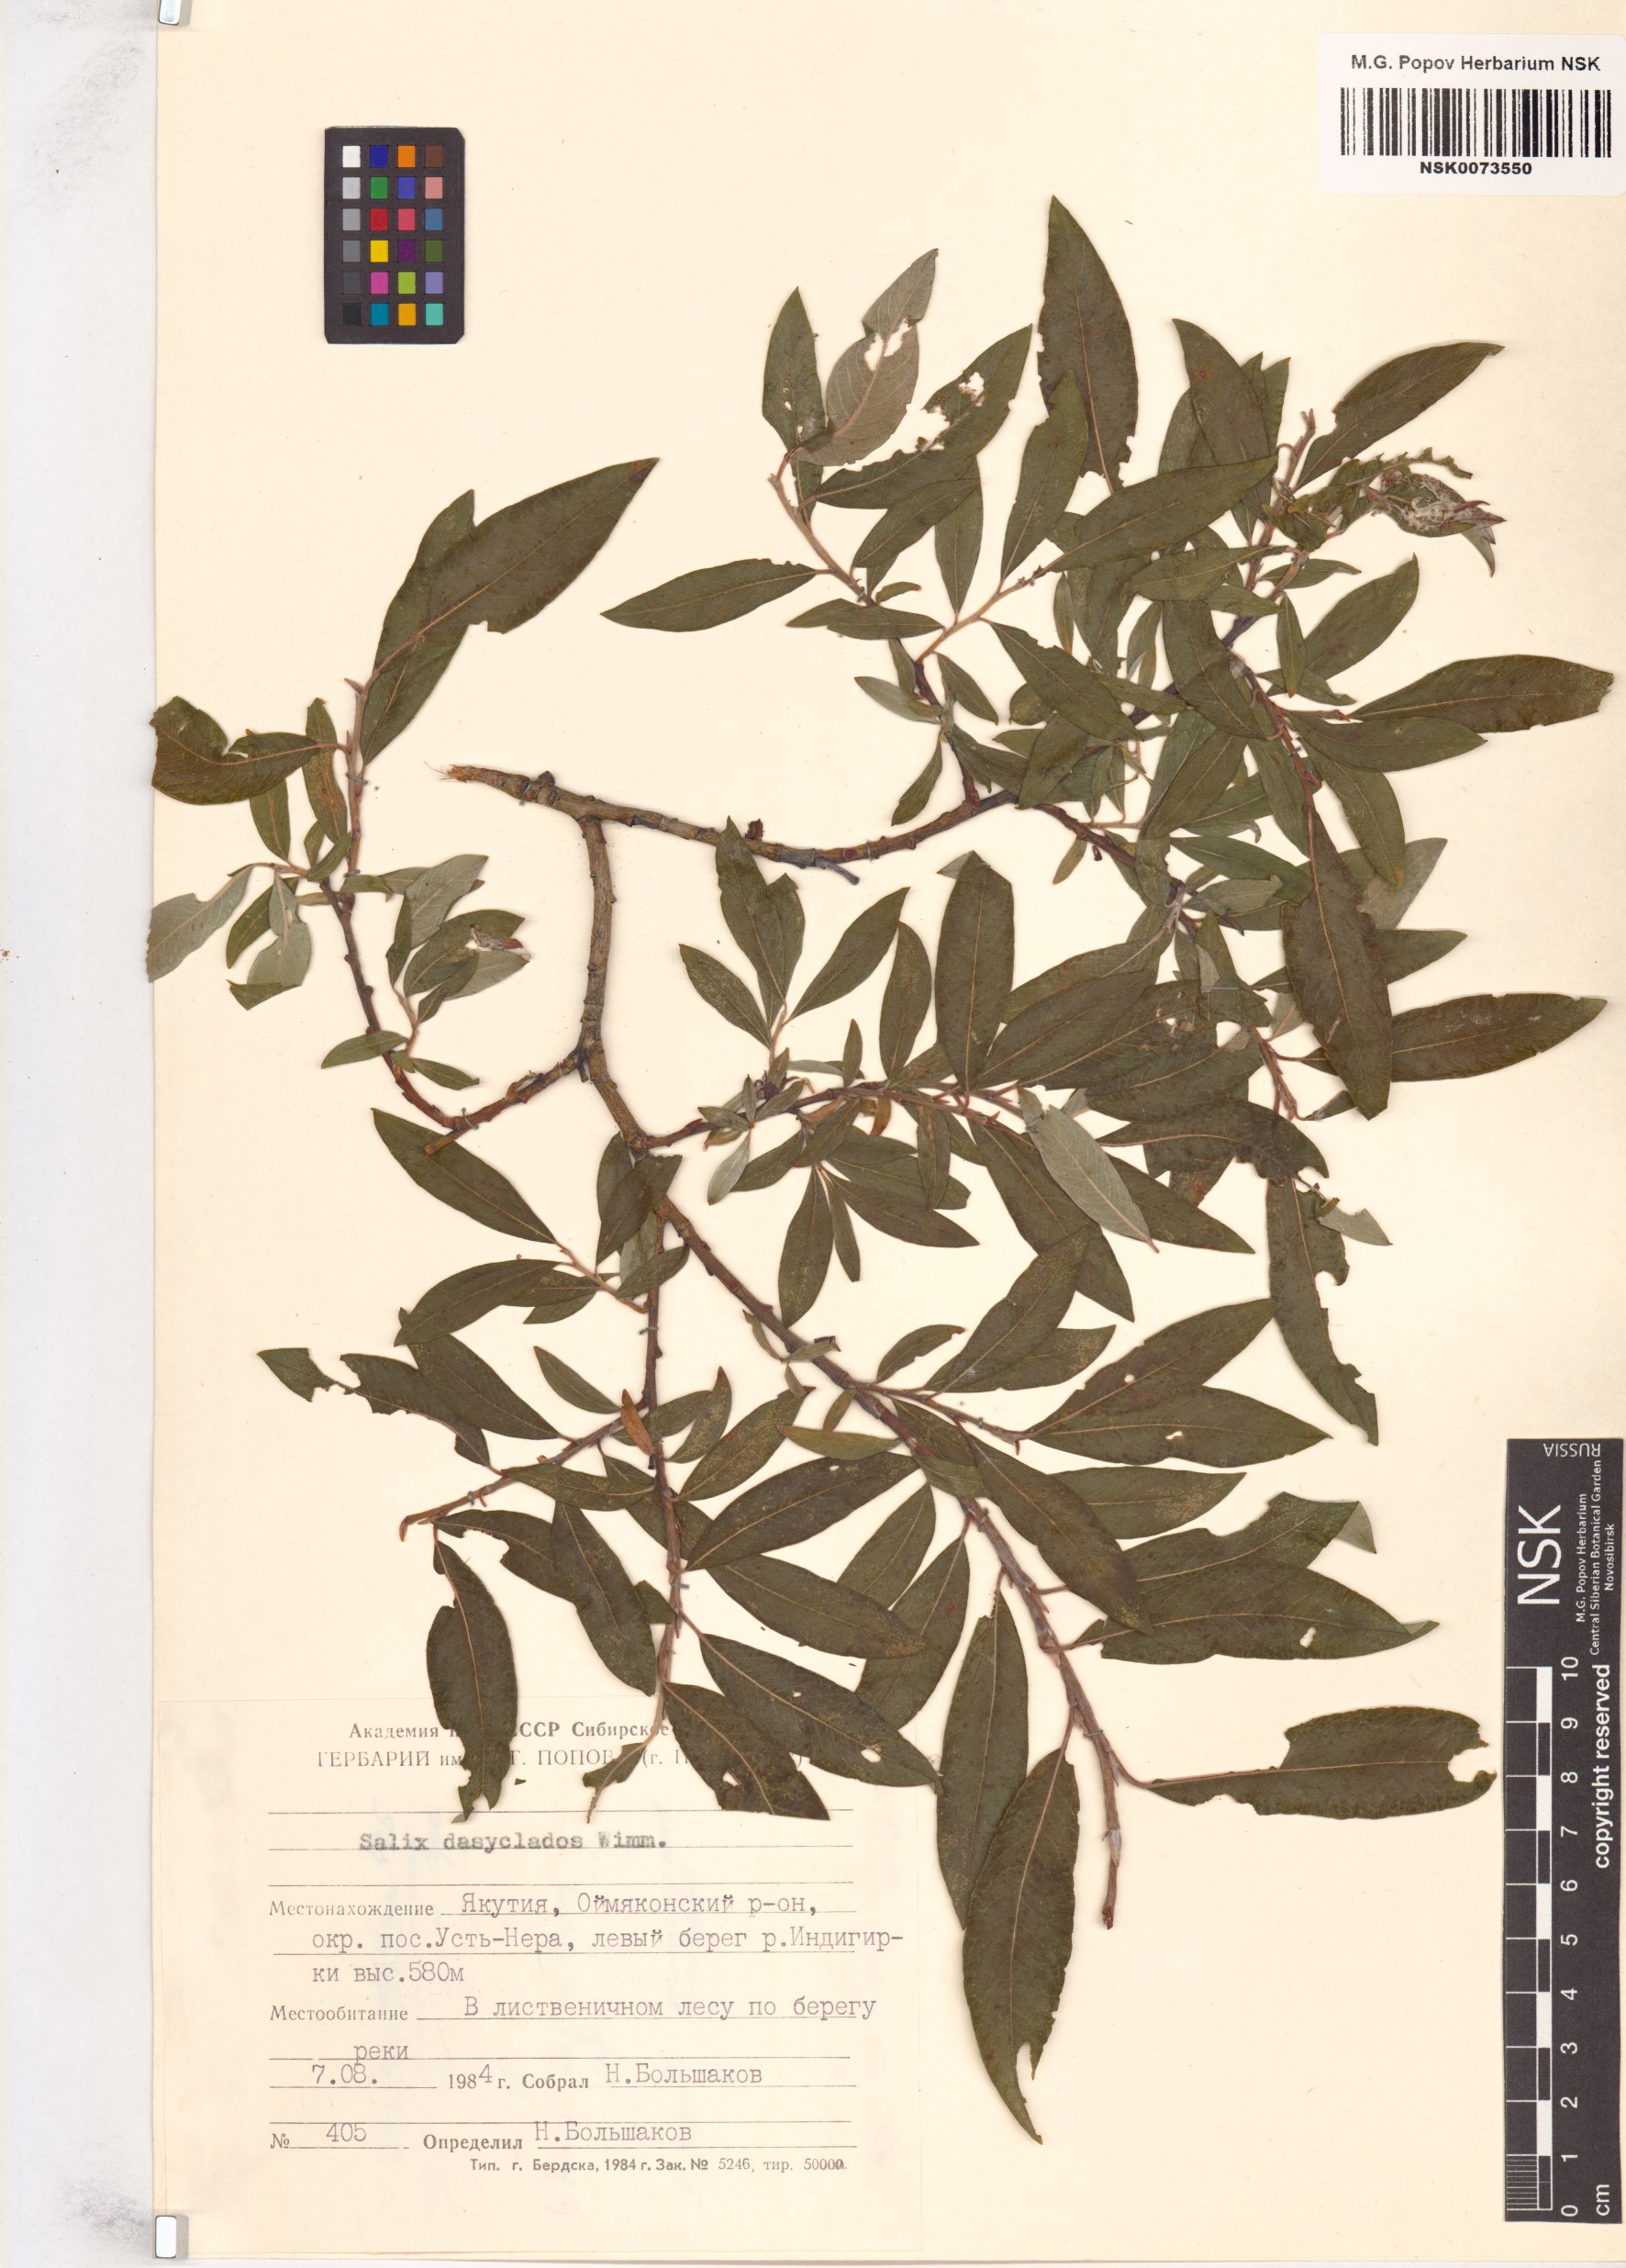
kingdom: Plantae
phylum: Tracheophyta
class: Magnoliopsida
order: Malpighiales
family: Salicaceae
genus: Salix
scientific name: Salix gmelinii
